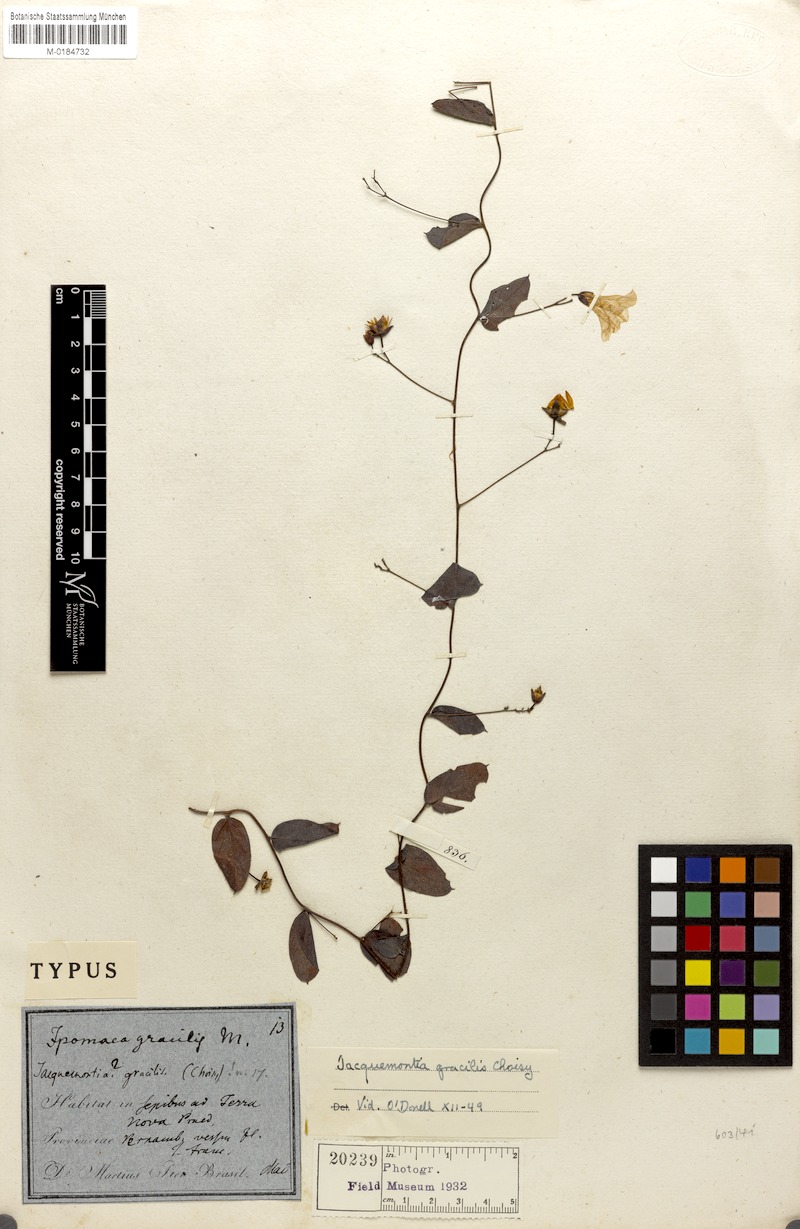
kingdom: Plantae
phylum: Tracheophyta
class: Magnoliopsida
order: Solanales
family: Convolvulaceae
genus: Jacquemontia
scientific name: Jacquemontia gracilis
